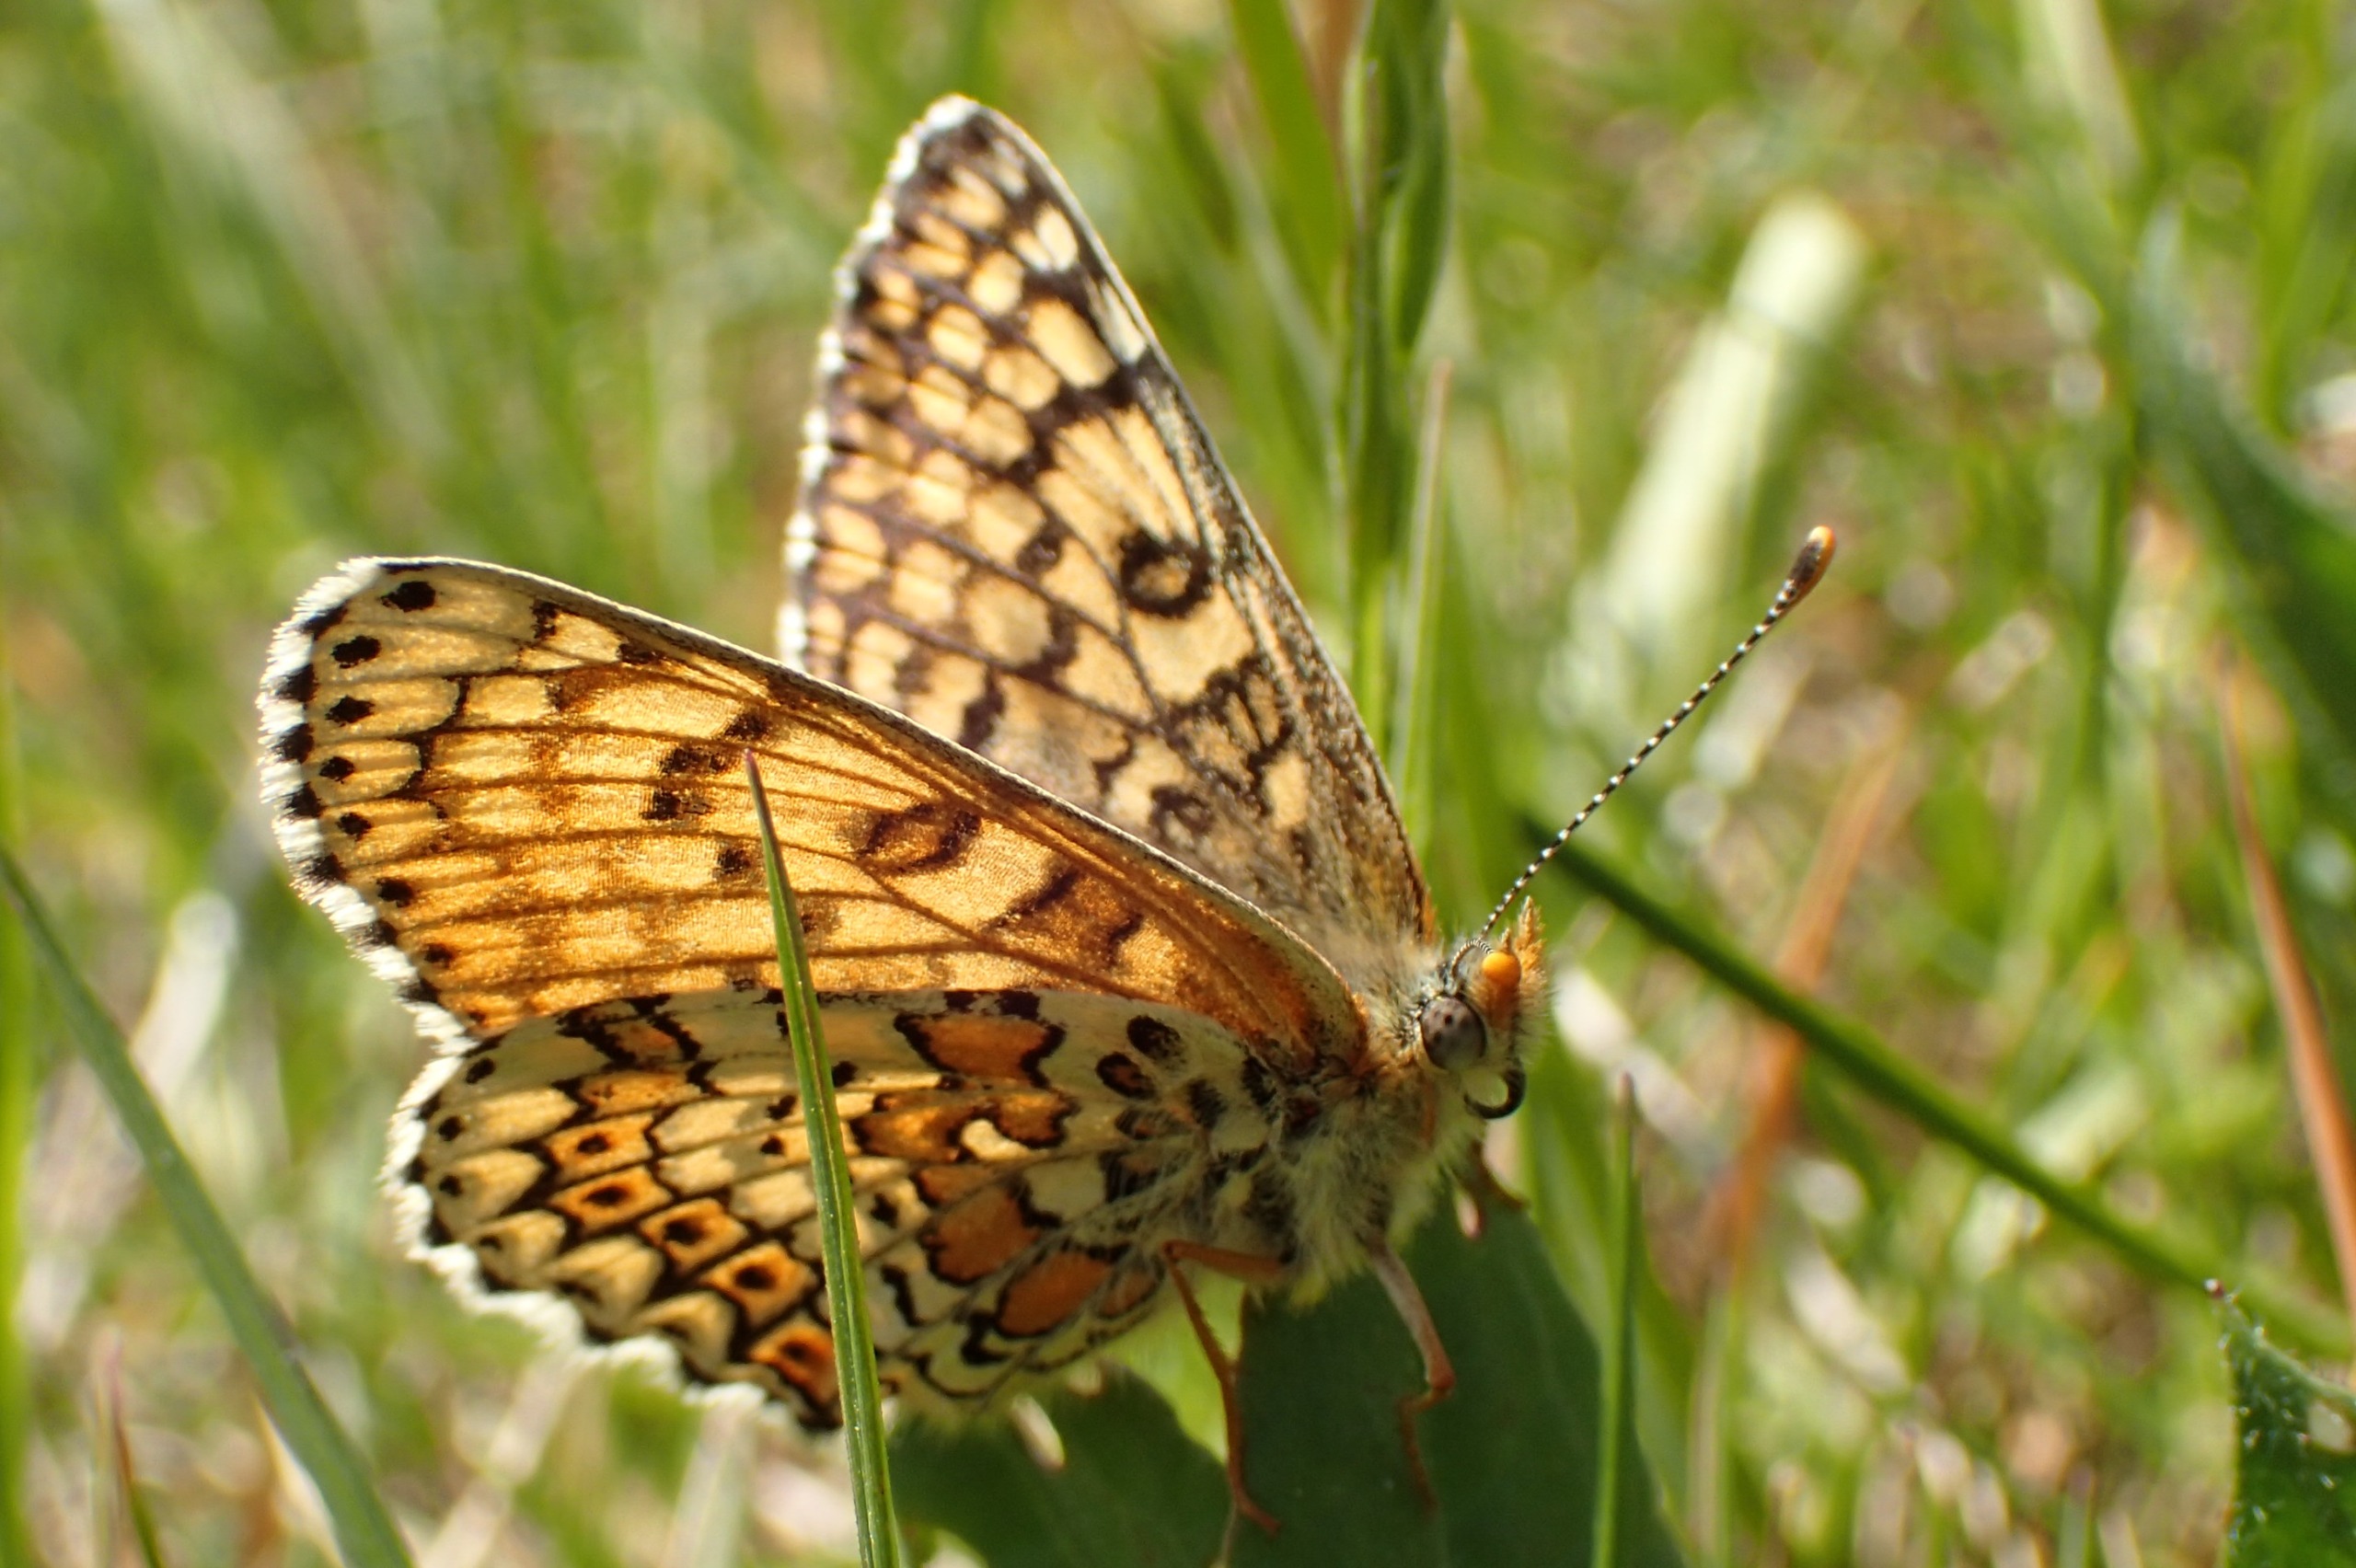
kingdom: Animalia
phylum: Arthropoda
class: Insecta
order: Lepidoptera
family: Nymphalidae
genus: Melitaea
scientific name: Melitaea cinxia
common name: Okkergul pletvinge
